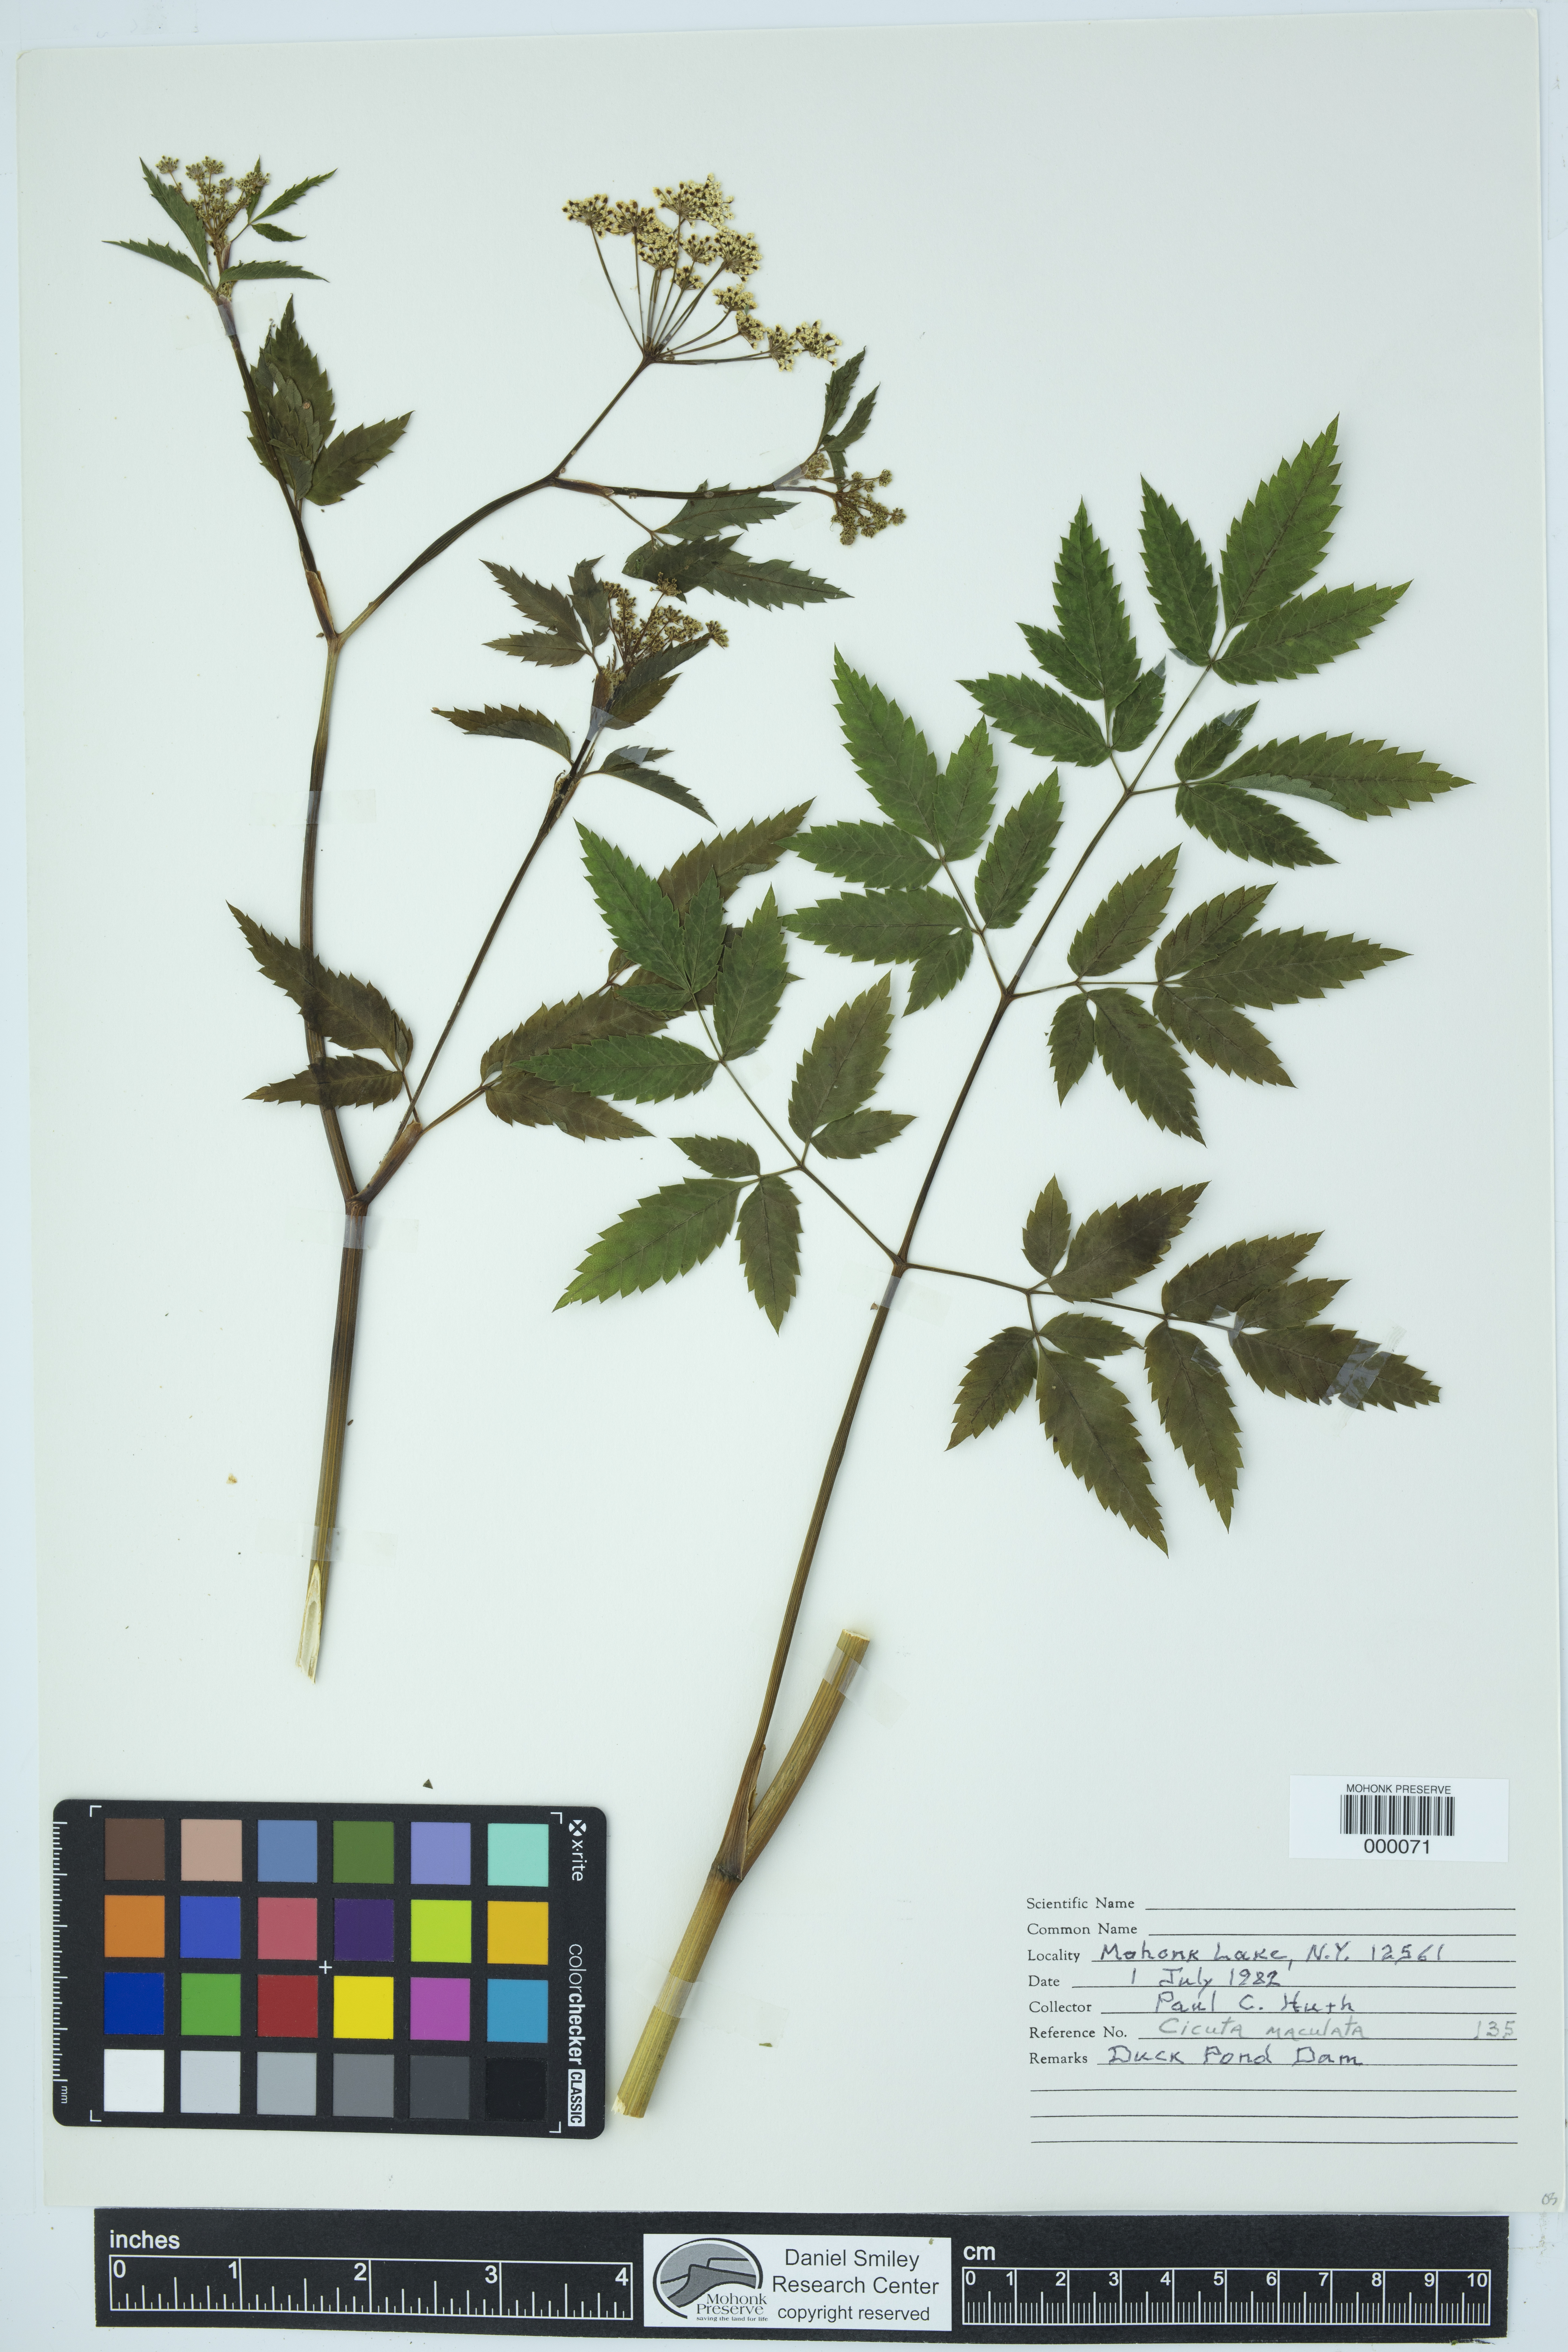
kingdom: Plantae
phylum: Tracheophyta
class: Magnoliopsida
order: Apiales
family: Apiaceae
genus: Cicuta
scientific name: Cicuta maculata
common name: Spotted cowbane
